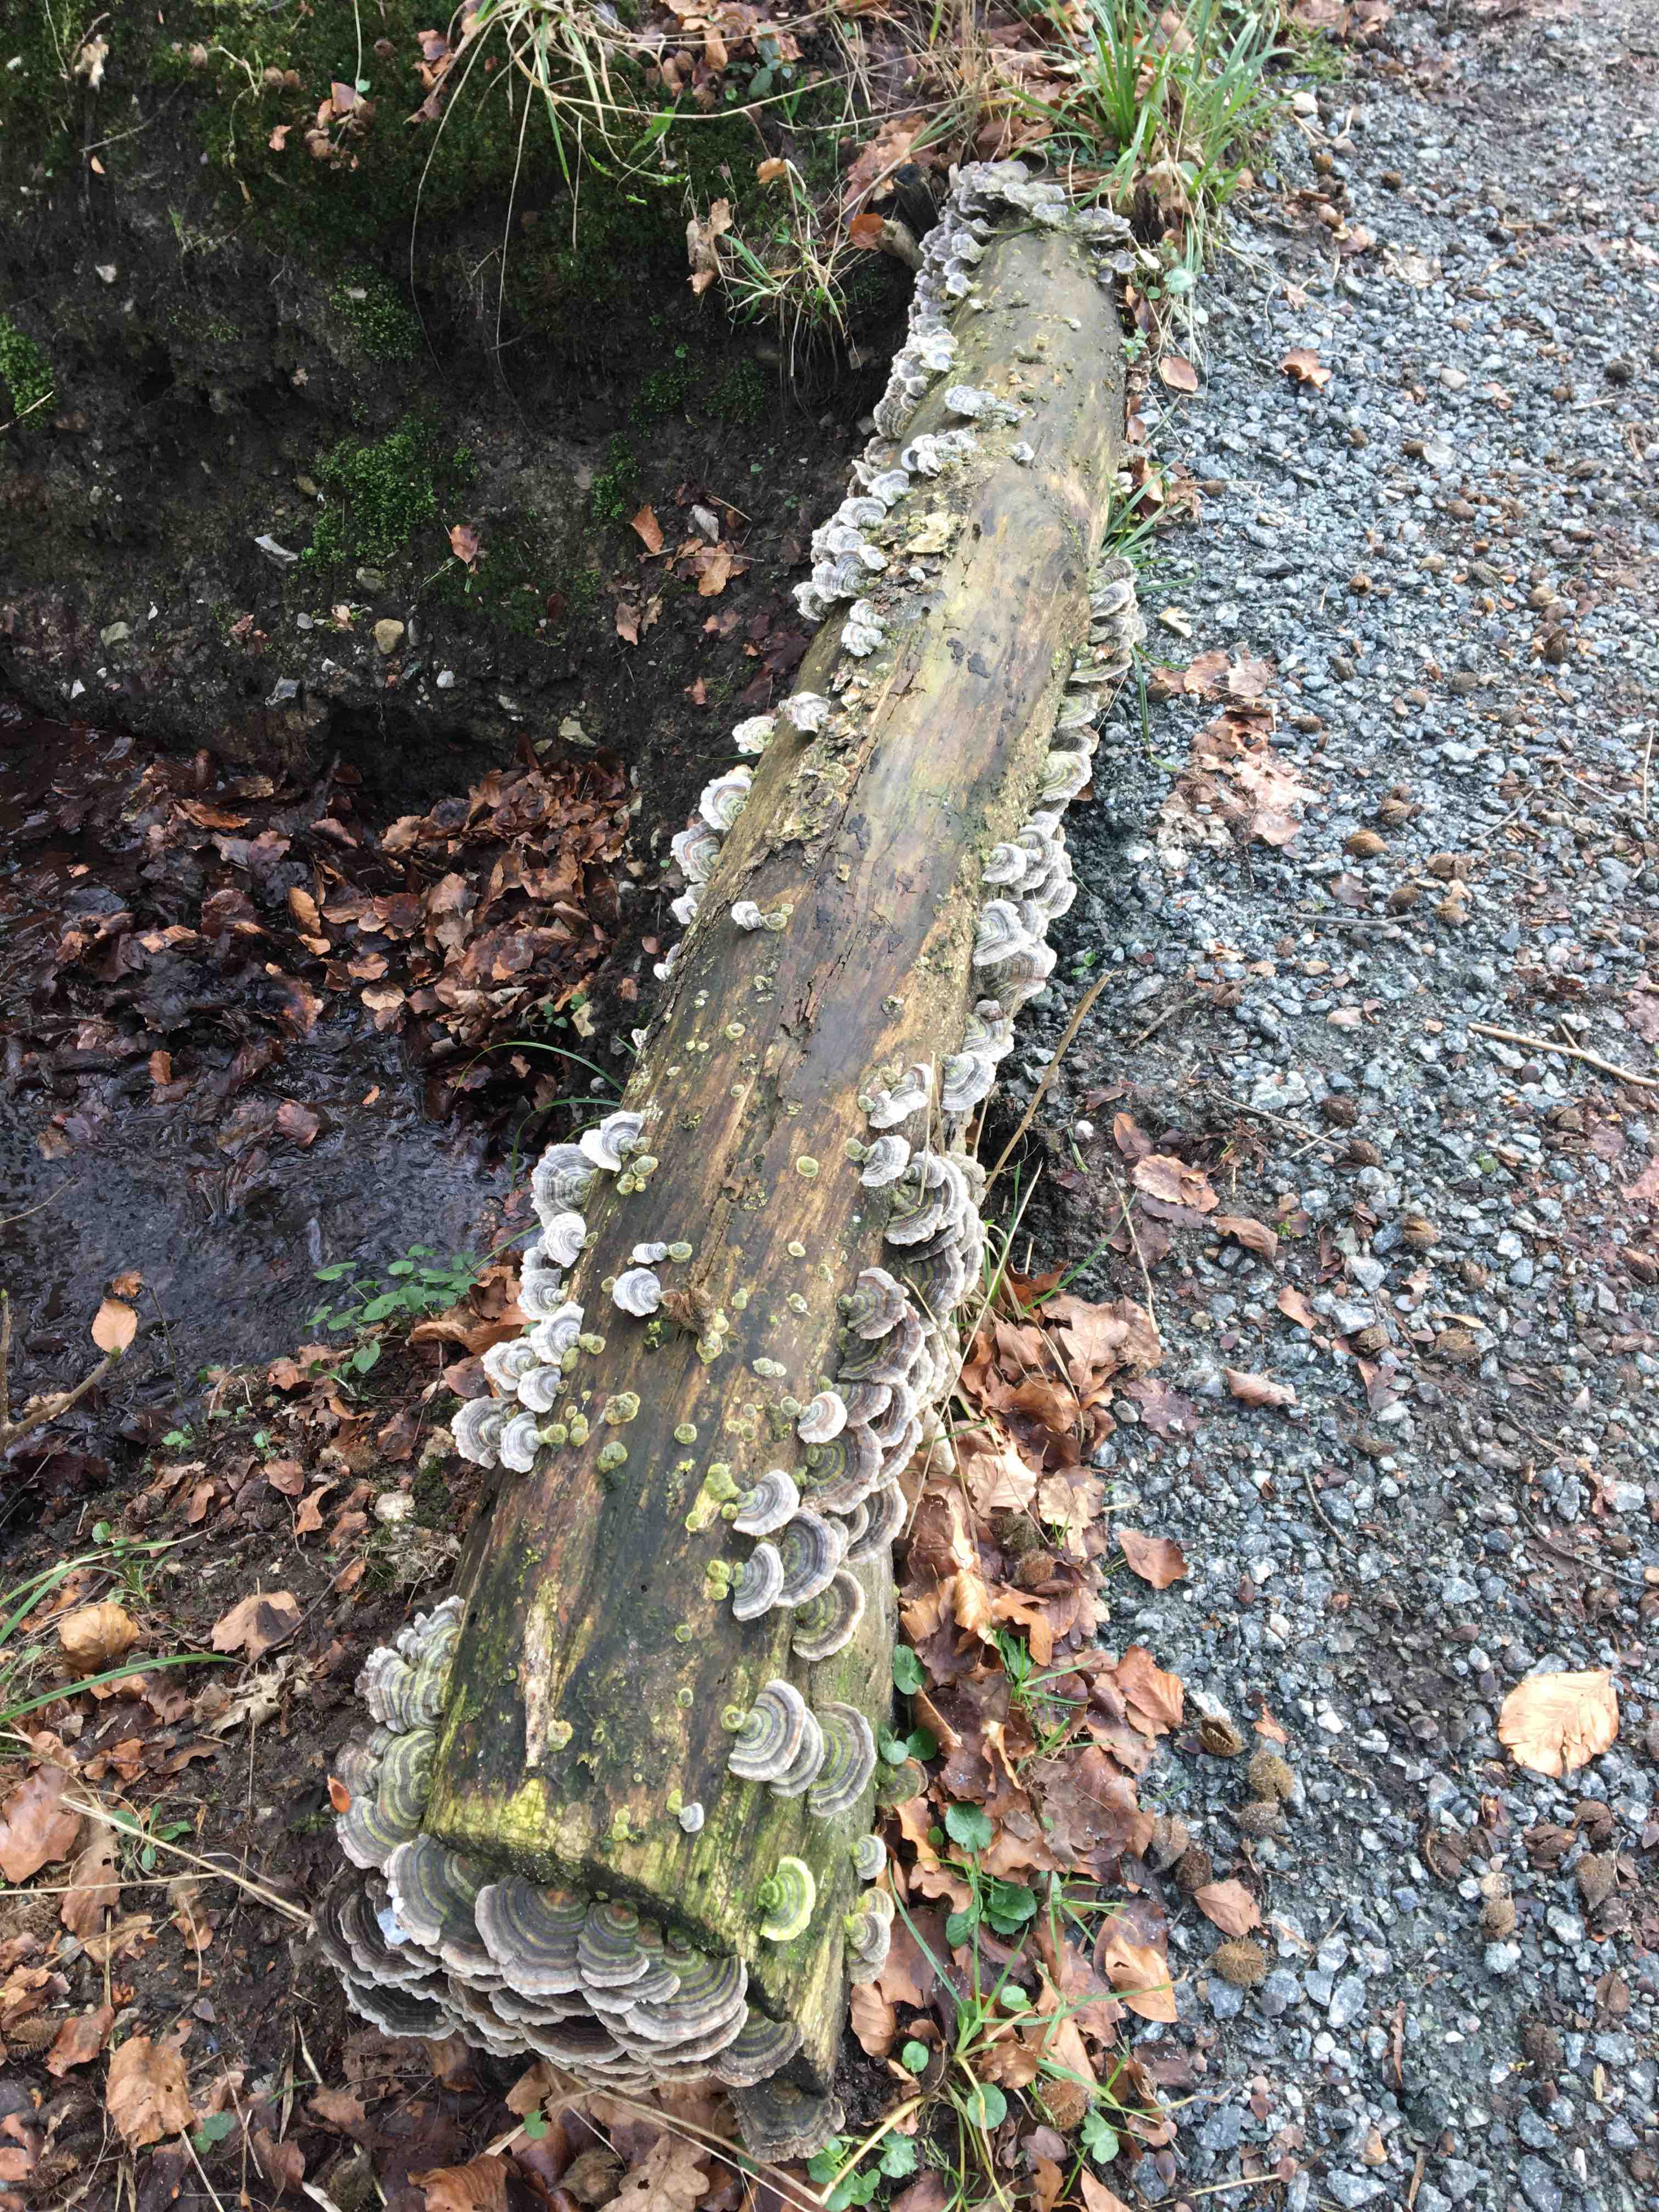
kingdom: Fungi
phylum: Basidiomycota
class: Agaricomycetes
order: Polyporales
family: Polyporaceae
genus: Trametes
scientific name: Trametes versicolor
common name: broget læderporesvamp
